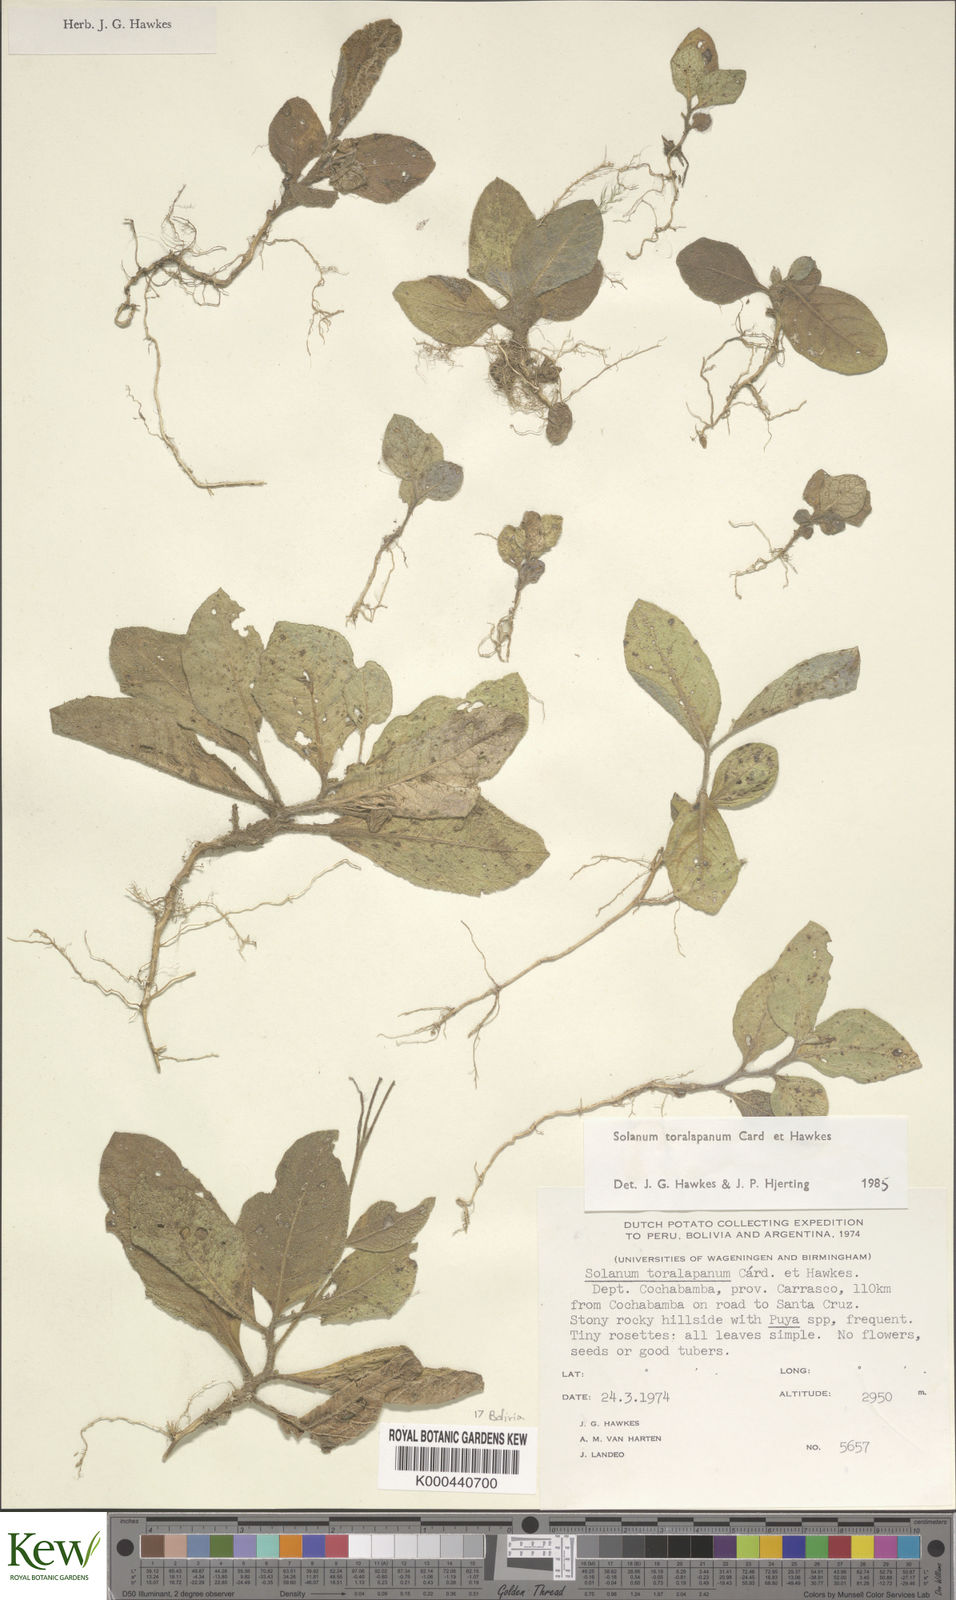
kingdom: Plantae
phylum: Tracheophyta
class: Magnoliopsida
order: Solanales
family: Solanaceae
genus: Solanum
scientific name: Solanum boliviense
